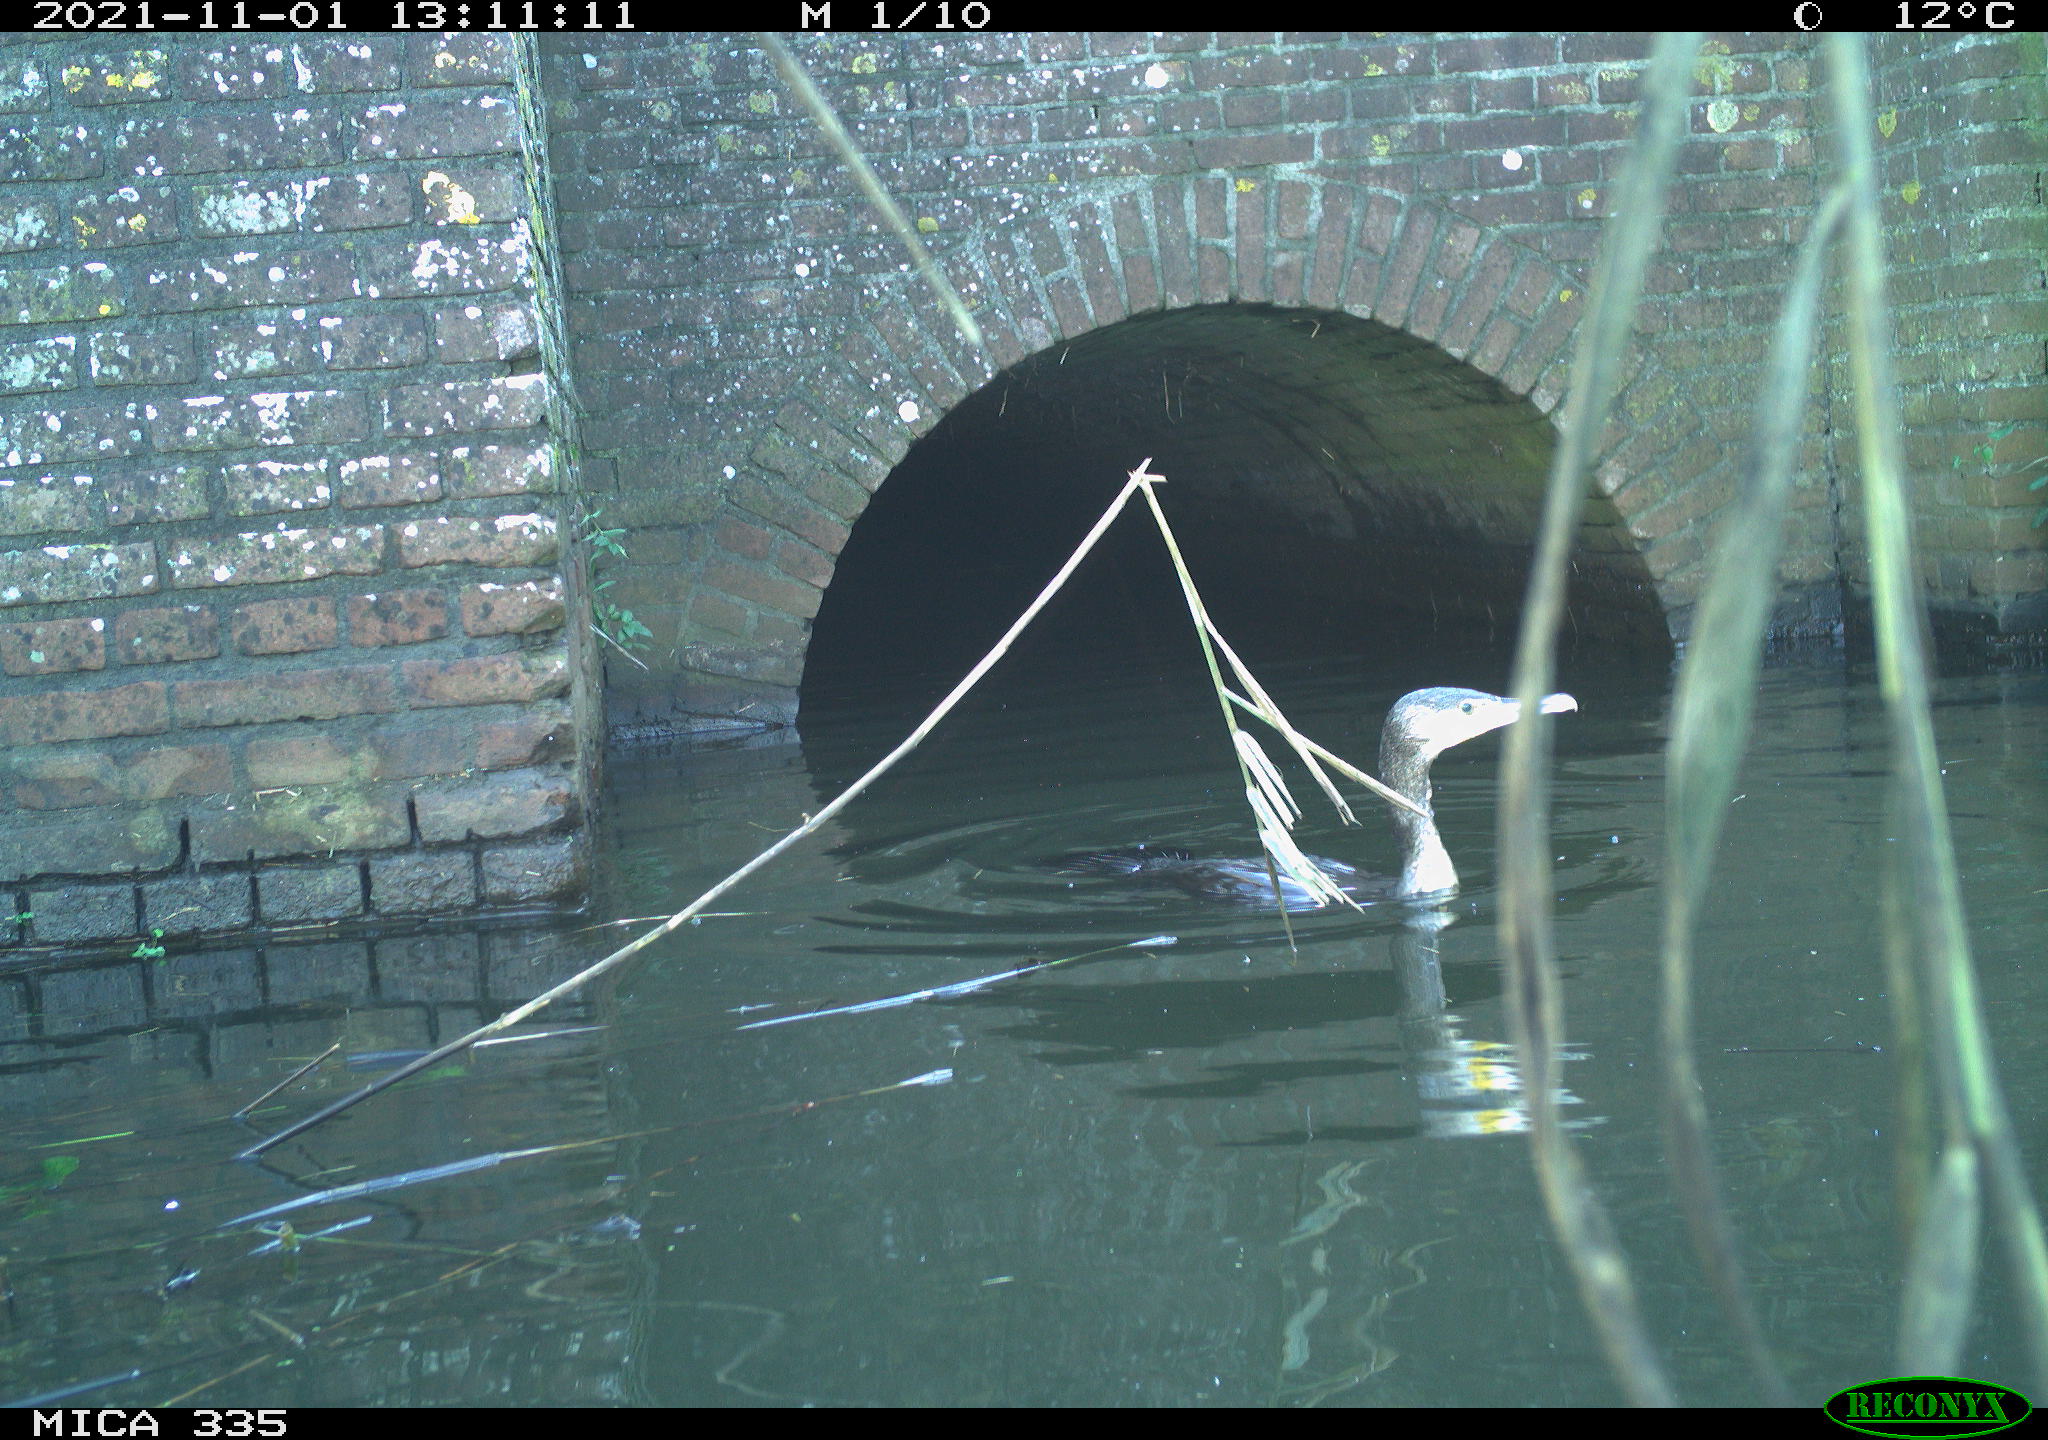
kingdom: Animalia
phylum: Chordata
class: Aves
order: Suliformes
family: Phalacrocoracidae
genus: Phalacrocorax
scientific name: Phalacrocorax carbo
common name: Great cormorant
